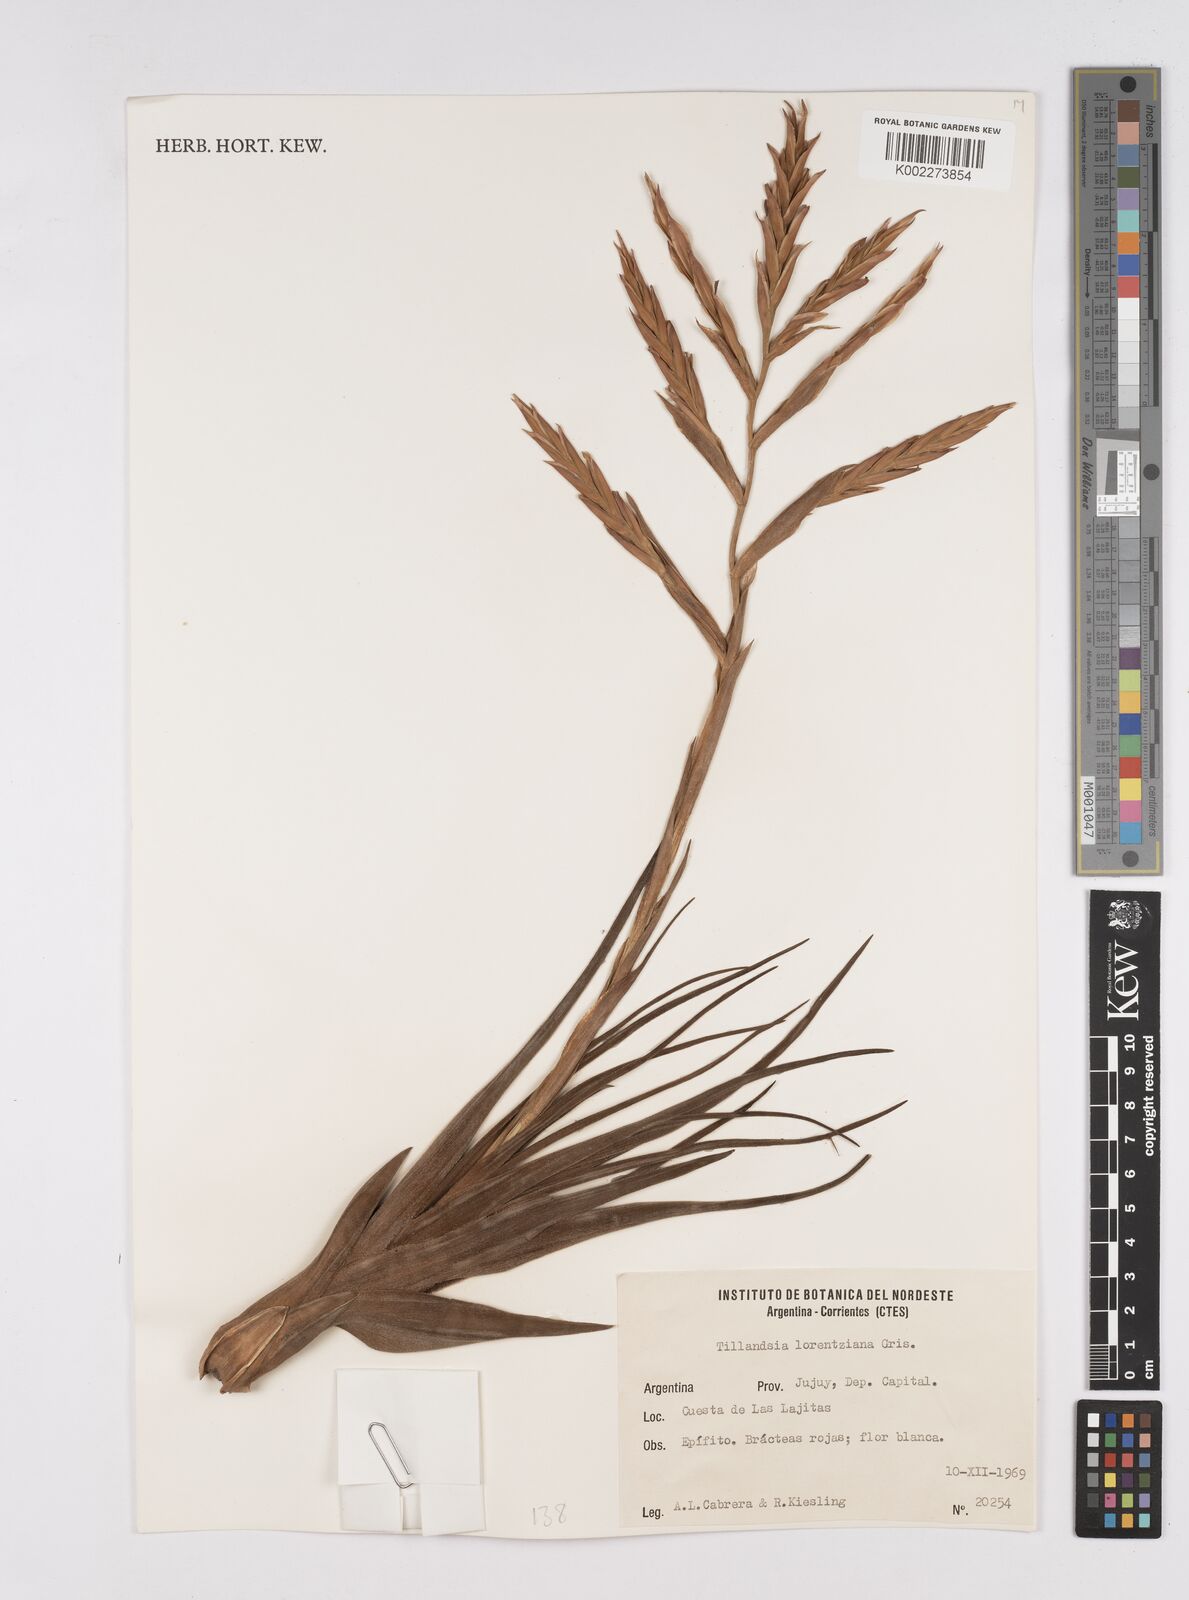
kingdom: Plantae
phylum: Tracheophyta
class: Liliopsida
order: Poales
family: Bromeliaceae
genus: Tillandsia
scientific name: Tillandsia lorentziana
